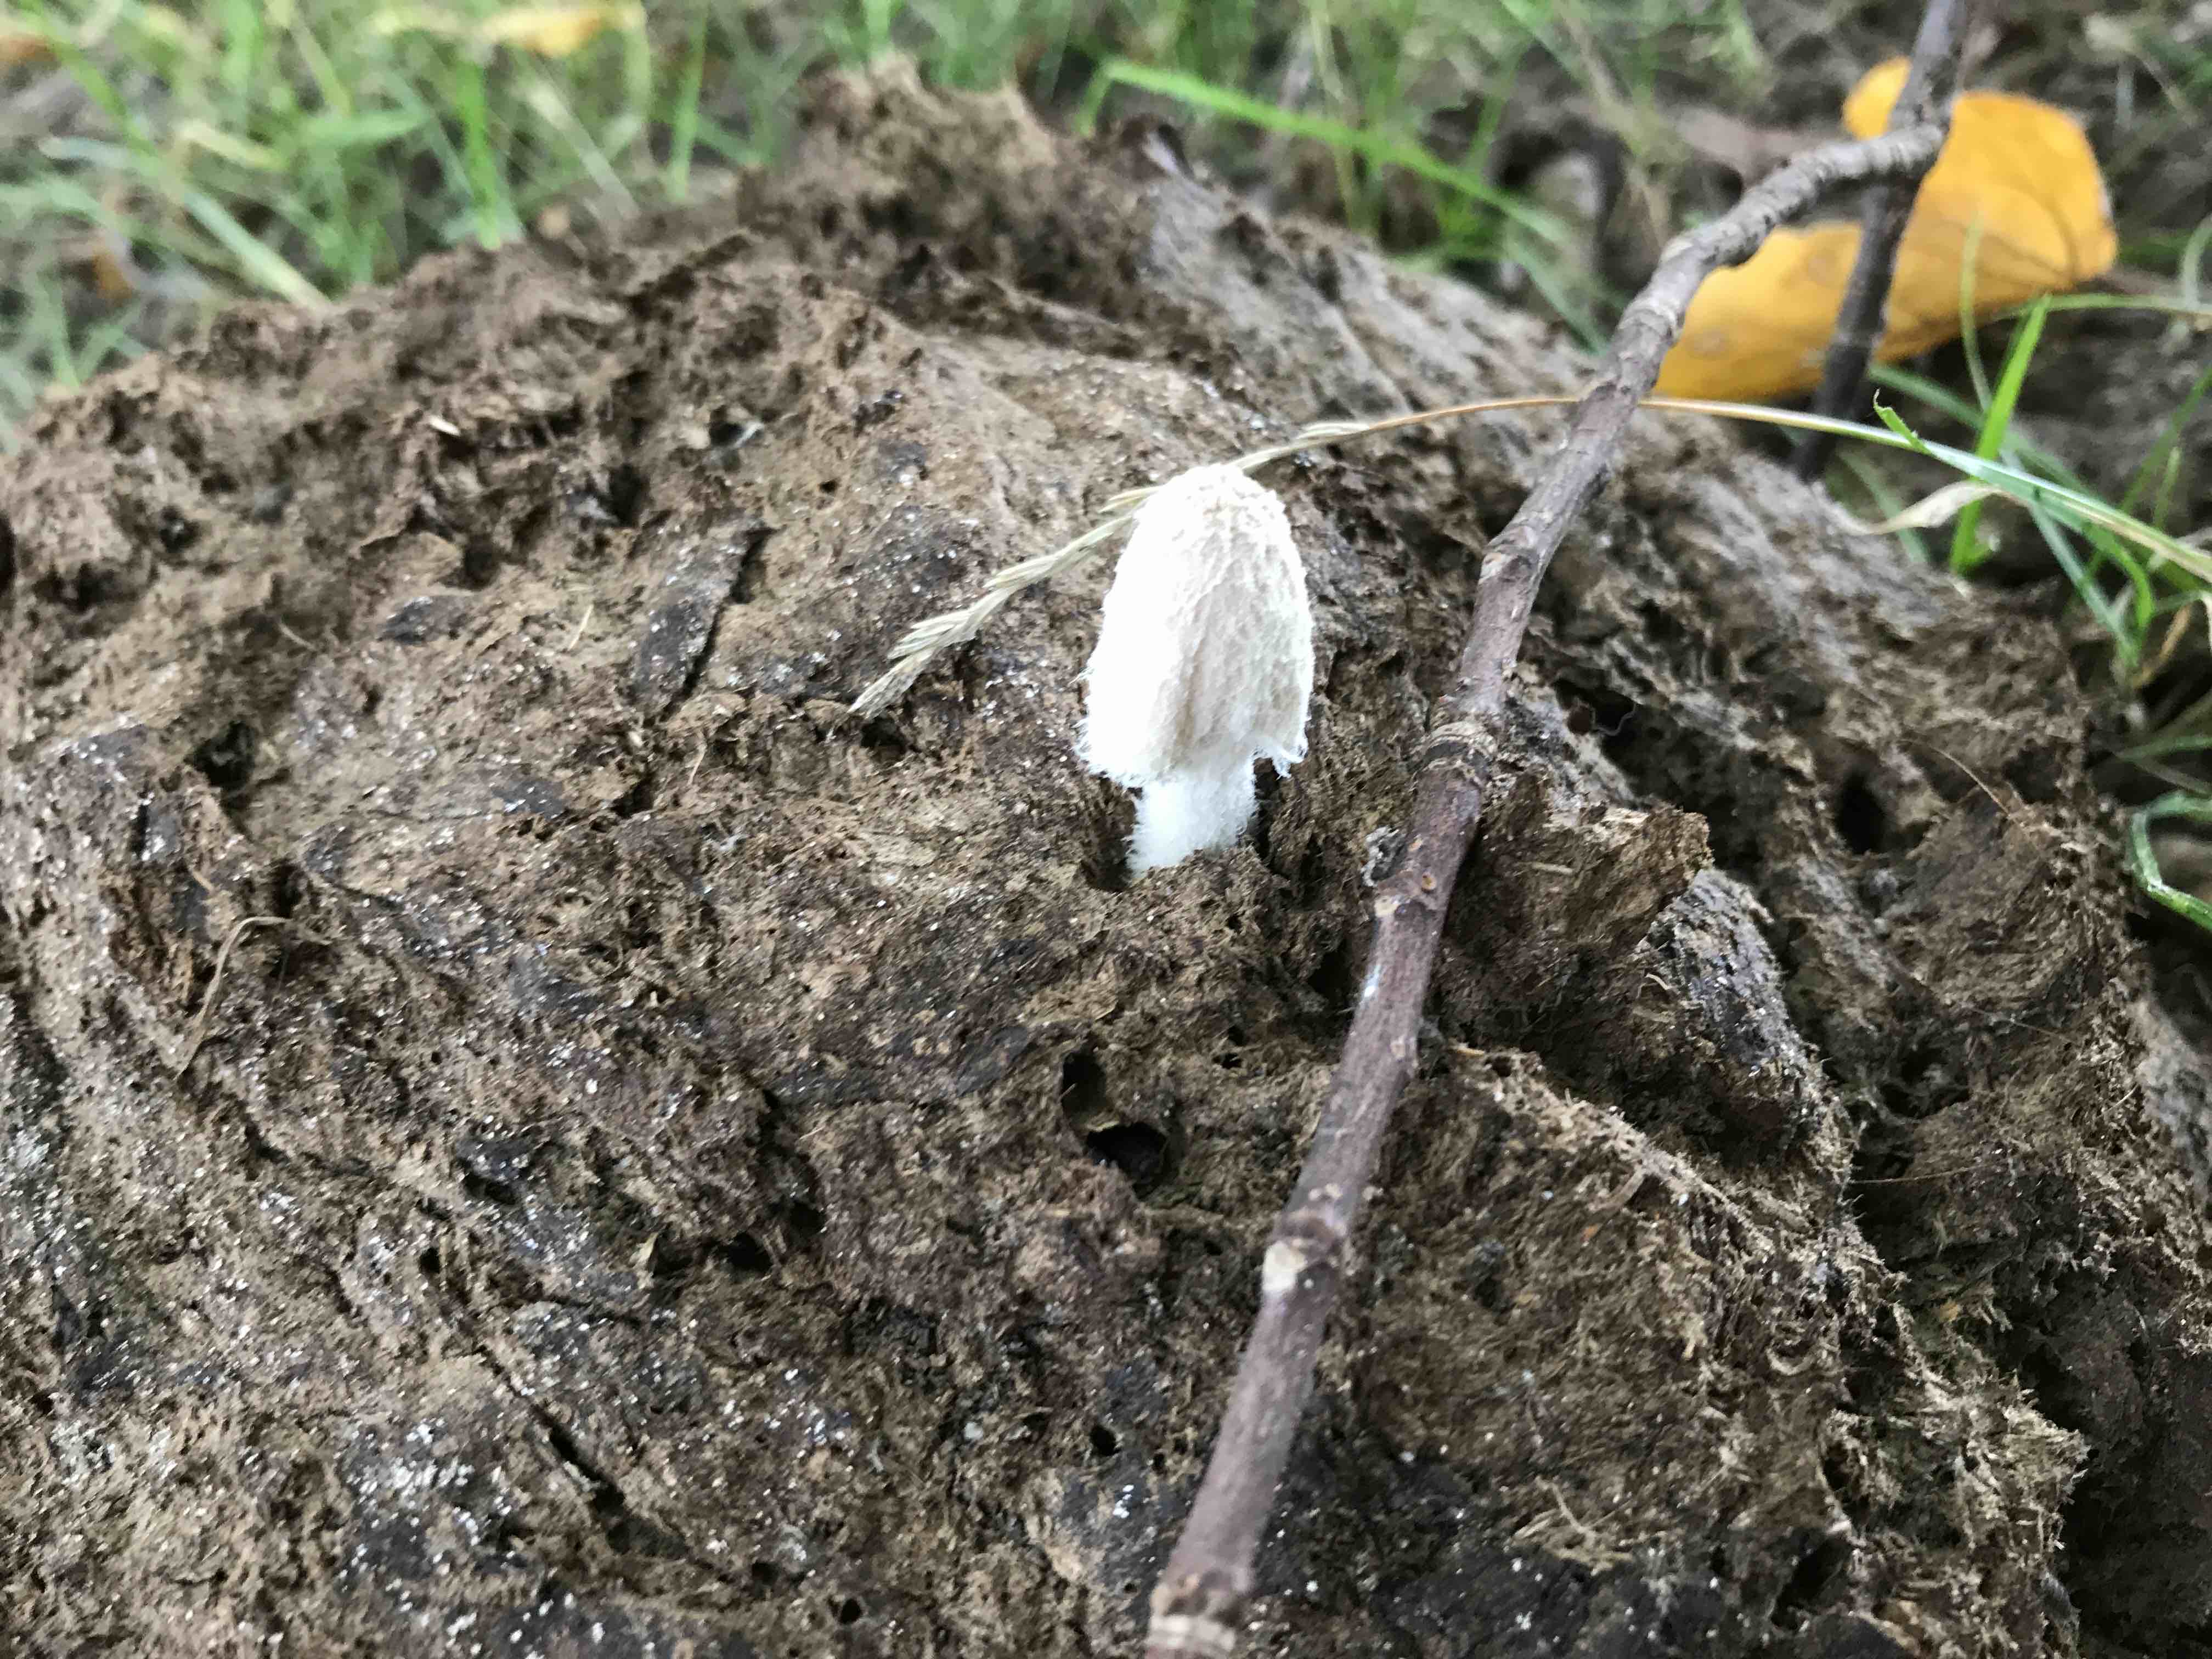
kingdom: Fungi
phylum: Basidiomycota
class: Agaricomycetes
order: Agaricales
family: Psathyrellaceae
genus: Coprinopsis
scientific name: Coprinopsis
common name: blækhat
